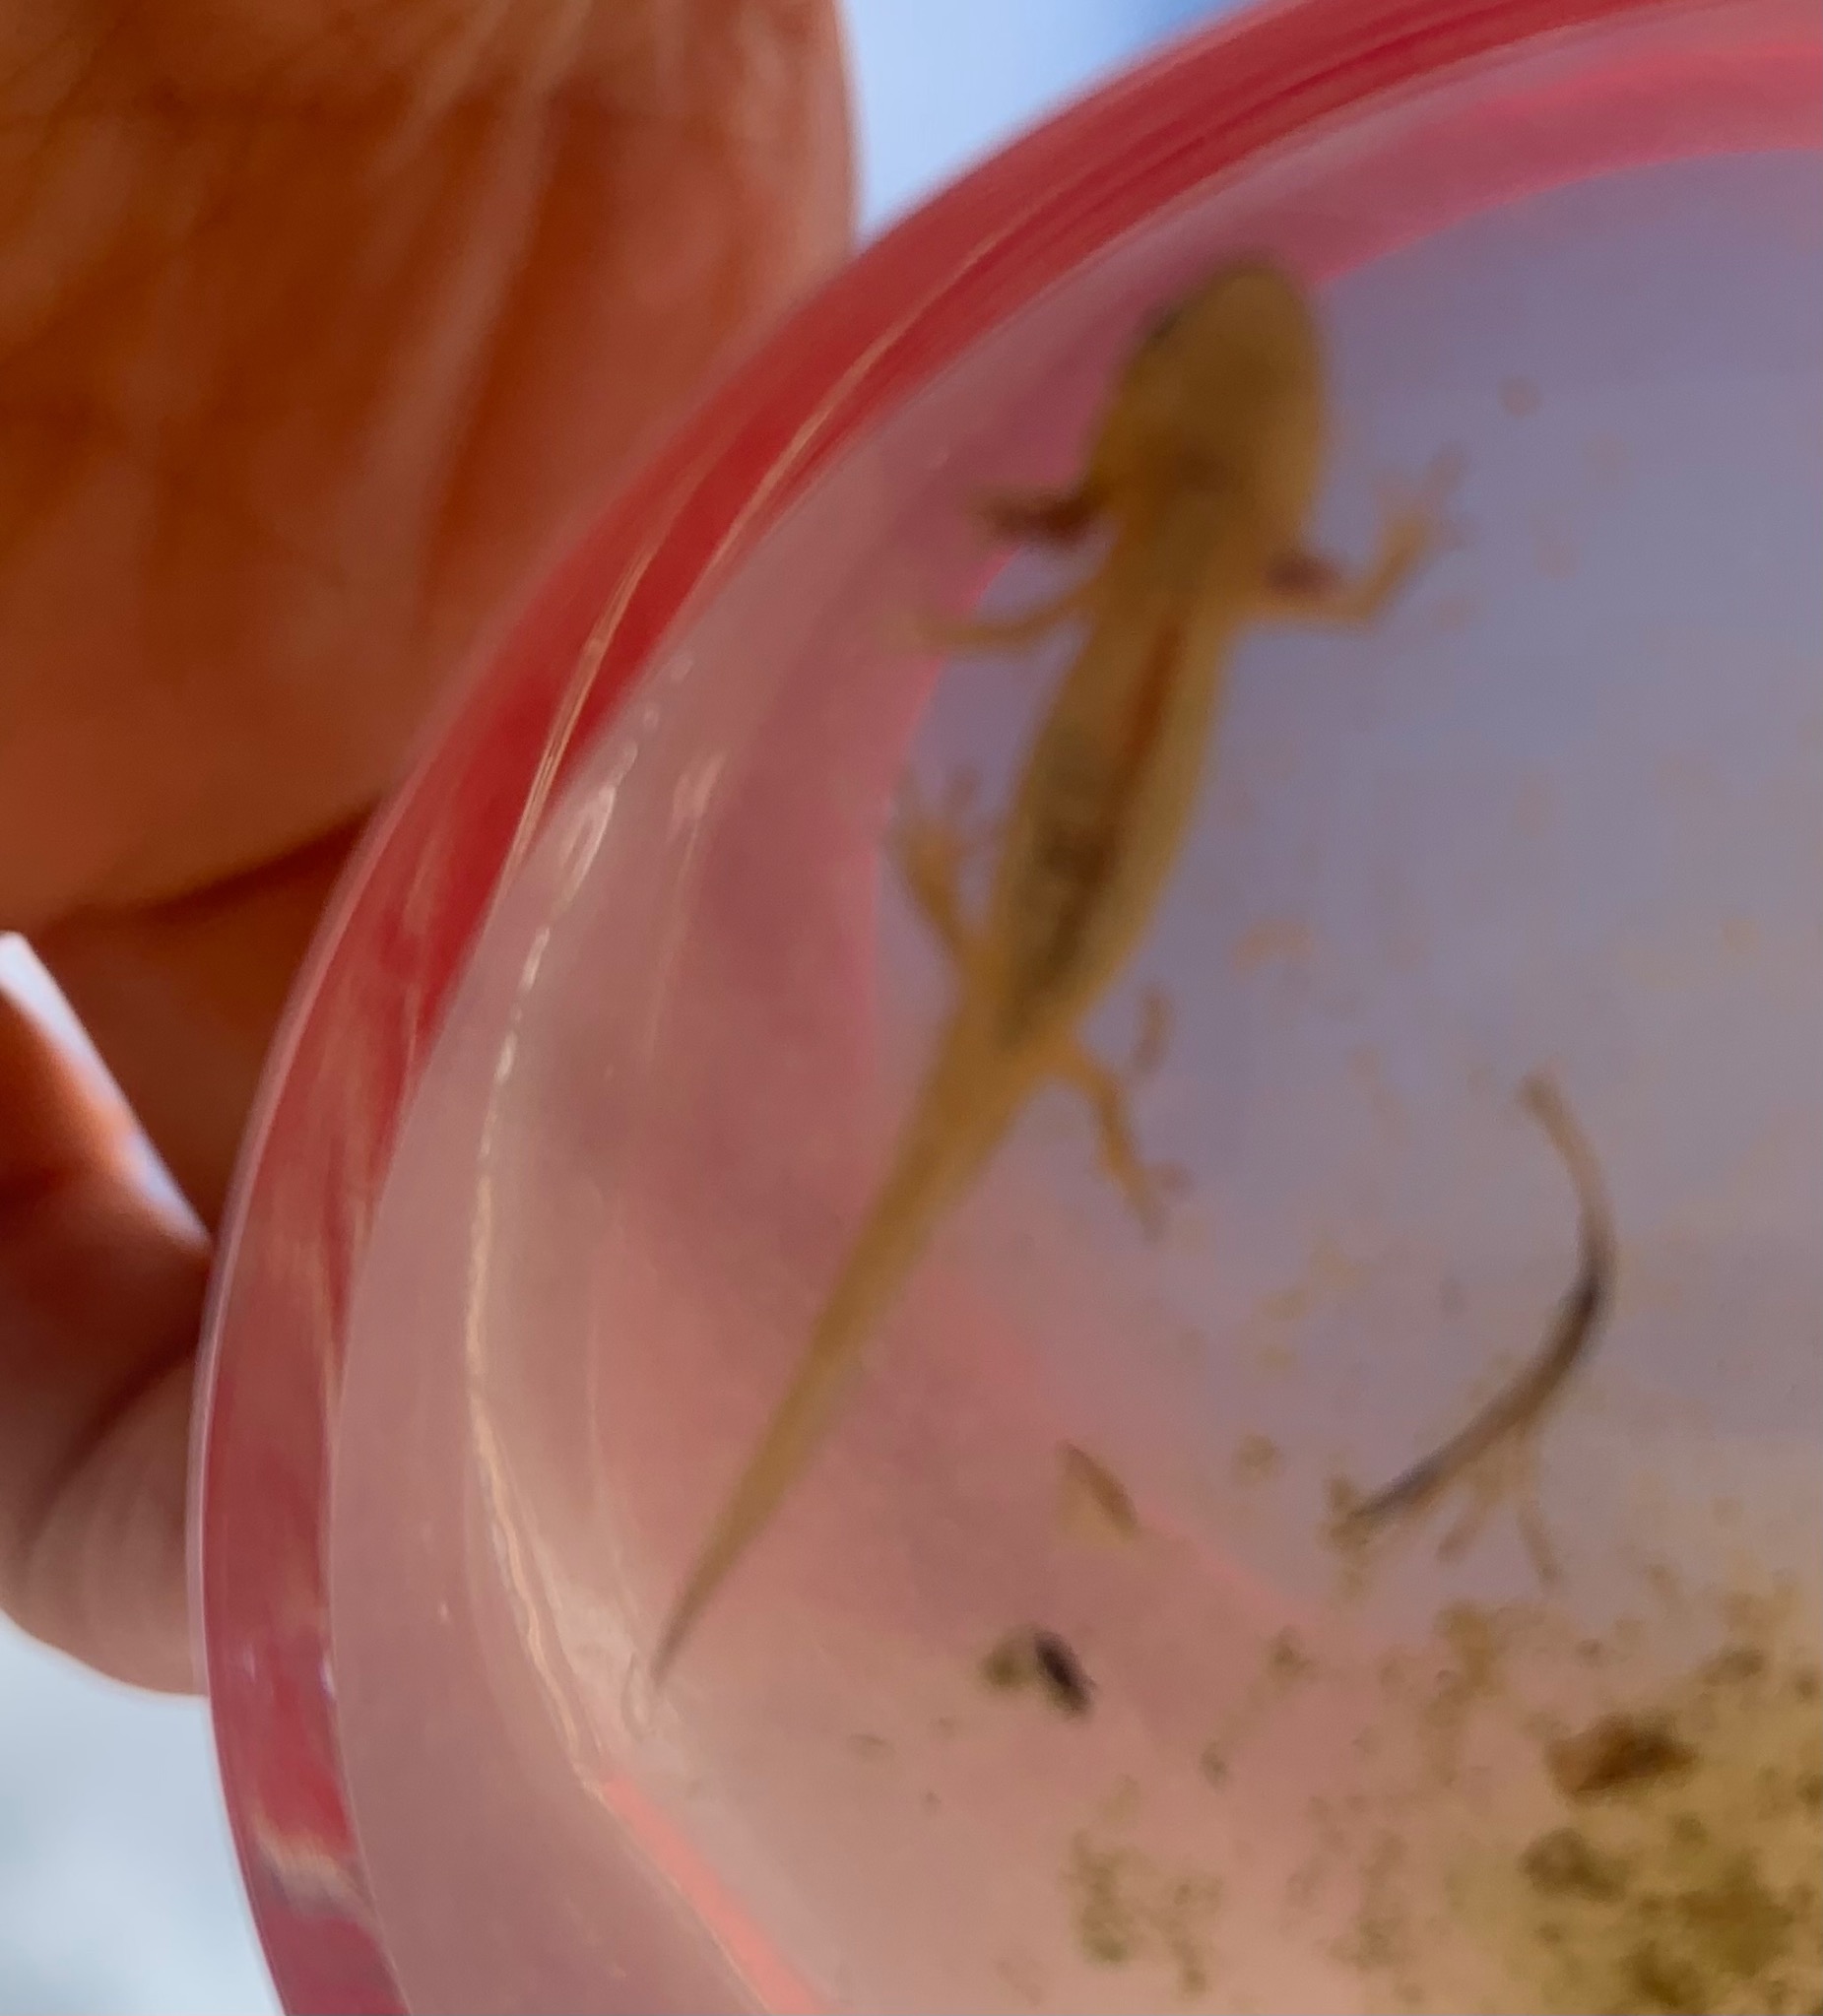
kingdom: Animalia
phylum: Chordata
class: Amphibia
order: Caudata
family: Salamandridae
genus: Lissotriton
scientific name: Lissotriton vulgaris
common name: Lille vandsalamander
